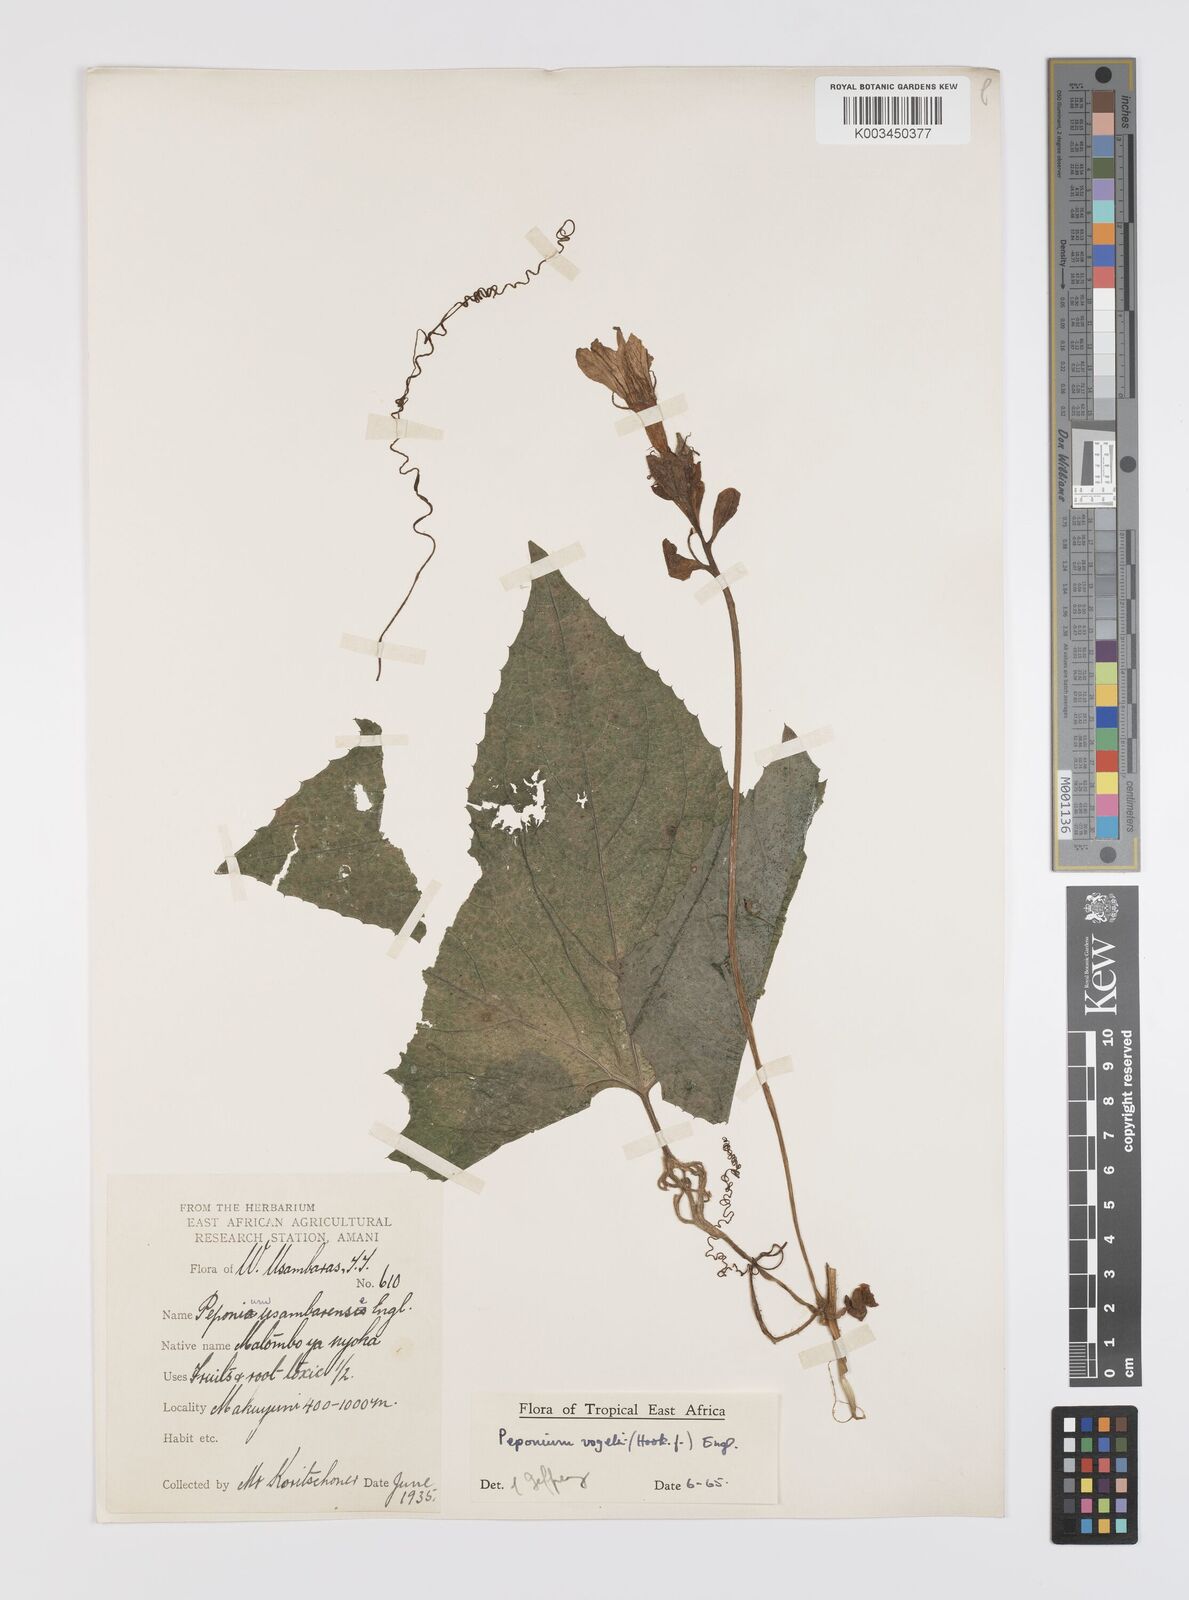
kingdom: Plantae
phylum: Tracheophyta
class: Magnoliopsida
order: Cucurbitales
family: Cucurbitaceae
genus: Peponium
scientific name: Peponium vogelii
